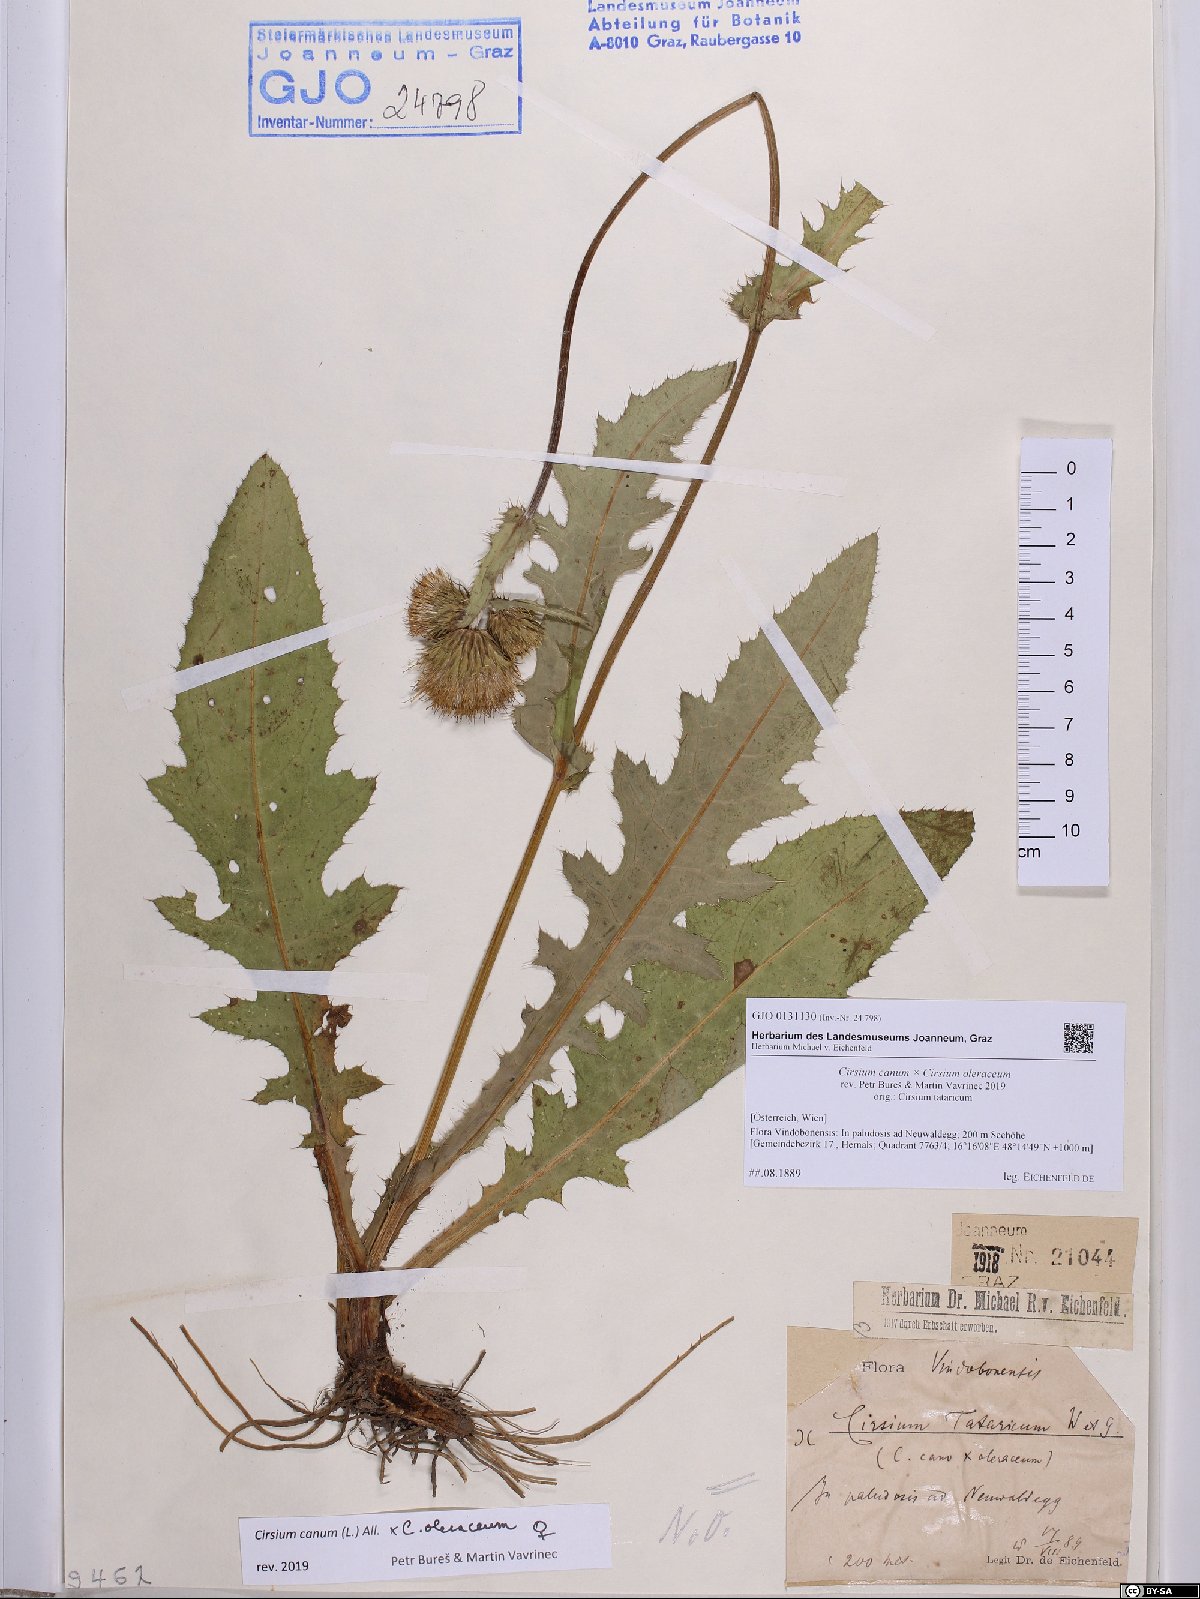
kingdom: Plantae
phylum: Tracheophyta
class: Magnoliopsida
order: Asterales
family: Asteraceae
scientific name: Asteraceae
